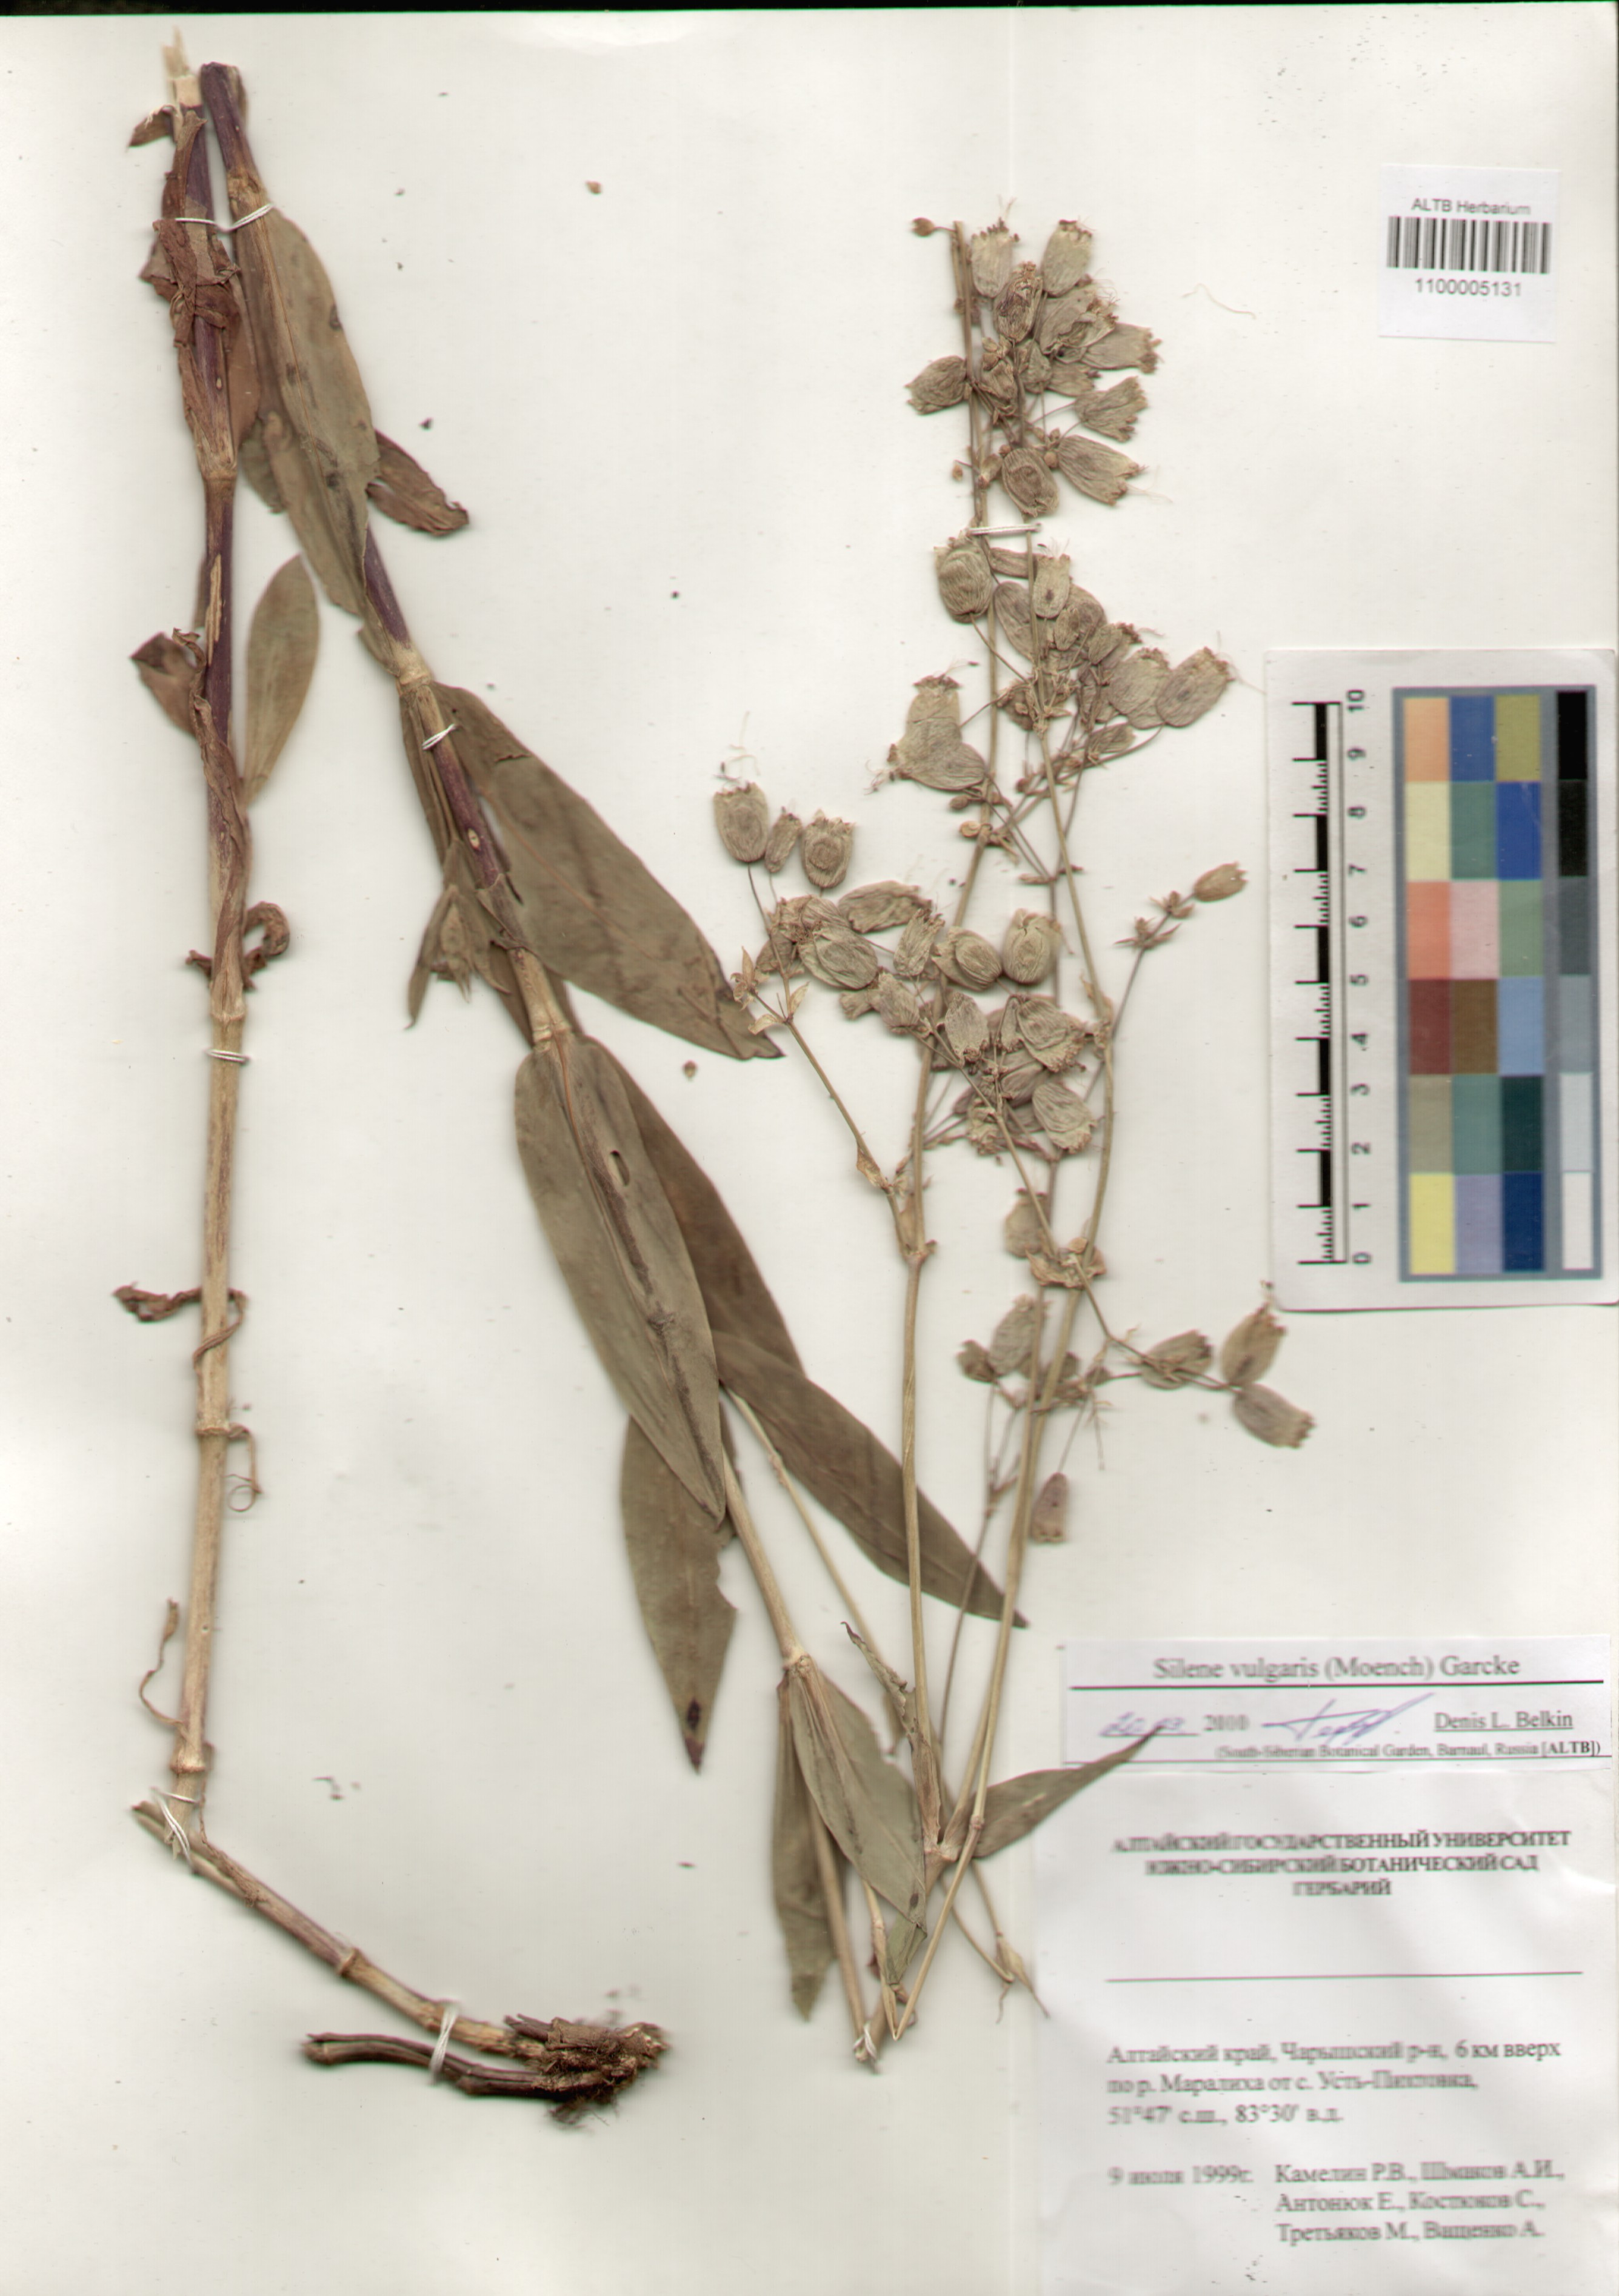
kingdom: Plantae
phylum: Tracheophyta
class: Magnoliopsida
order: Caryophyllales
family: Caryophyllaceae
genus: Silene
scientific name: Silene vulgaris
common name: Bladder campion
